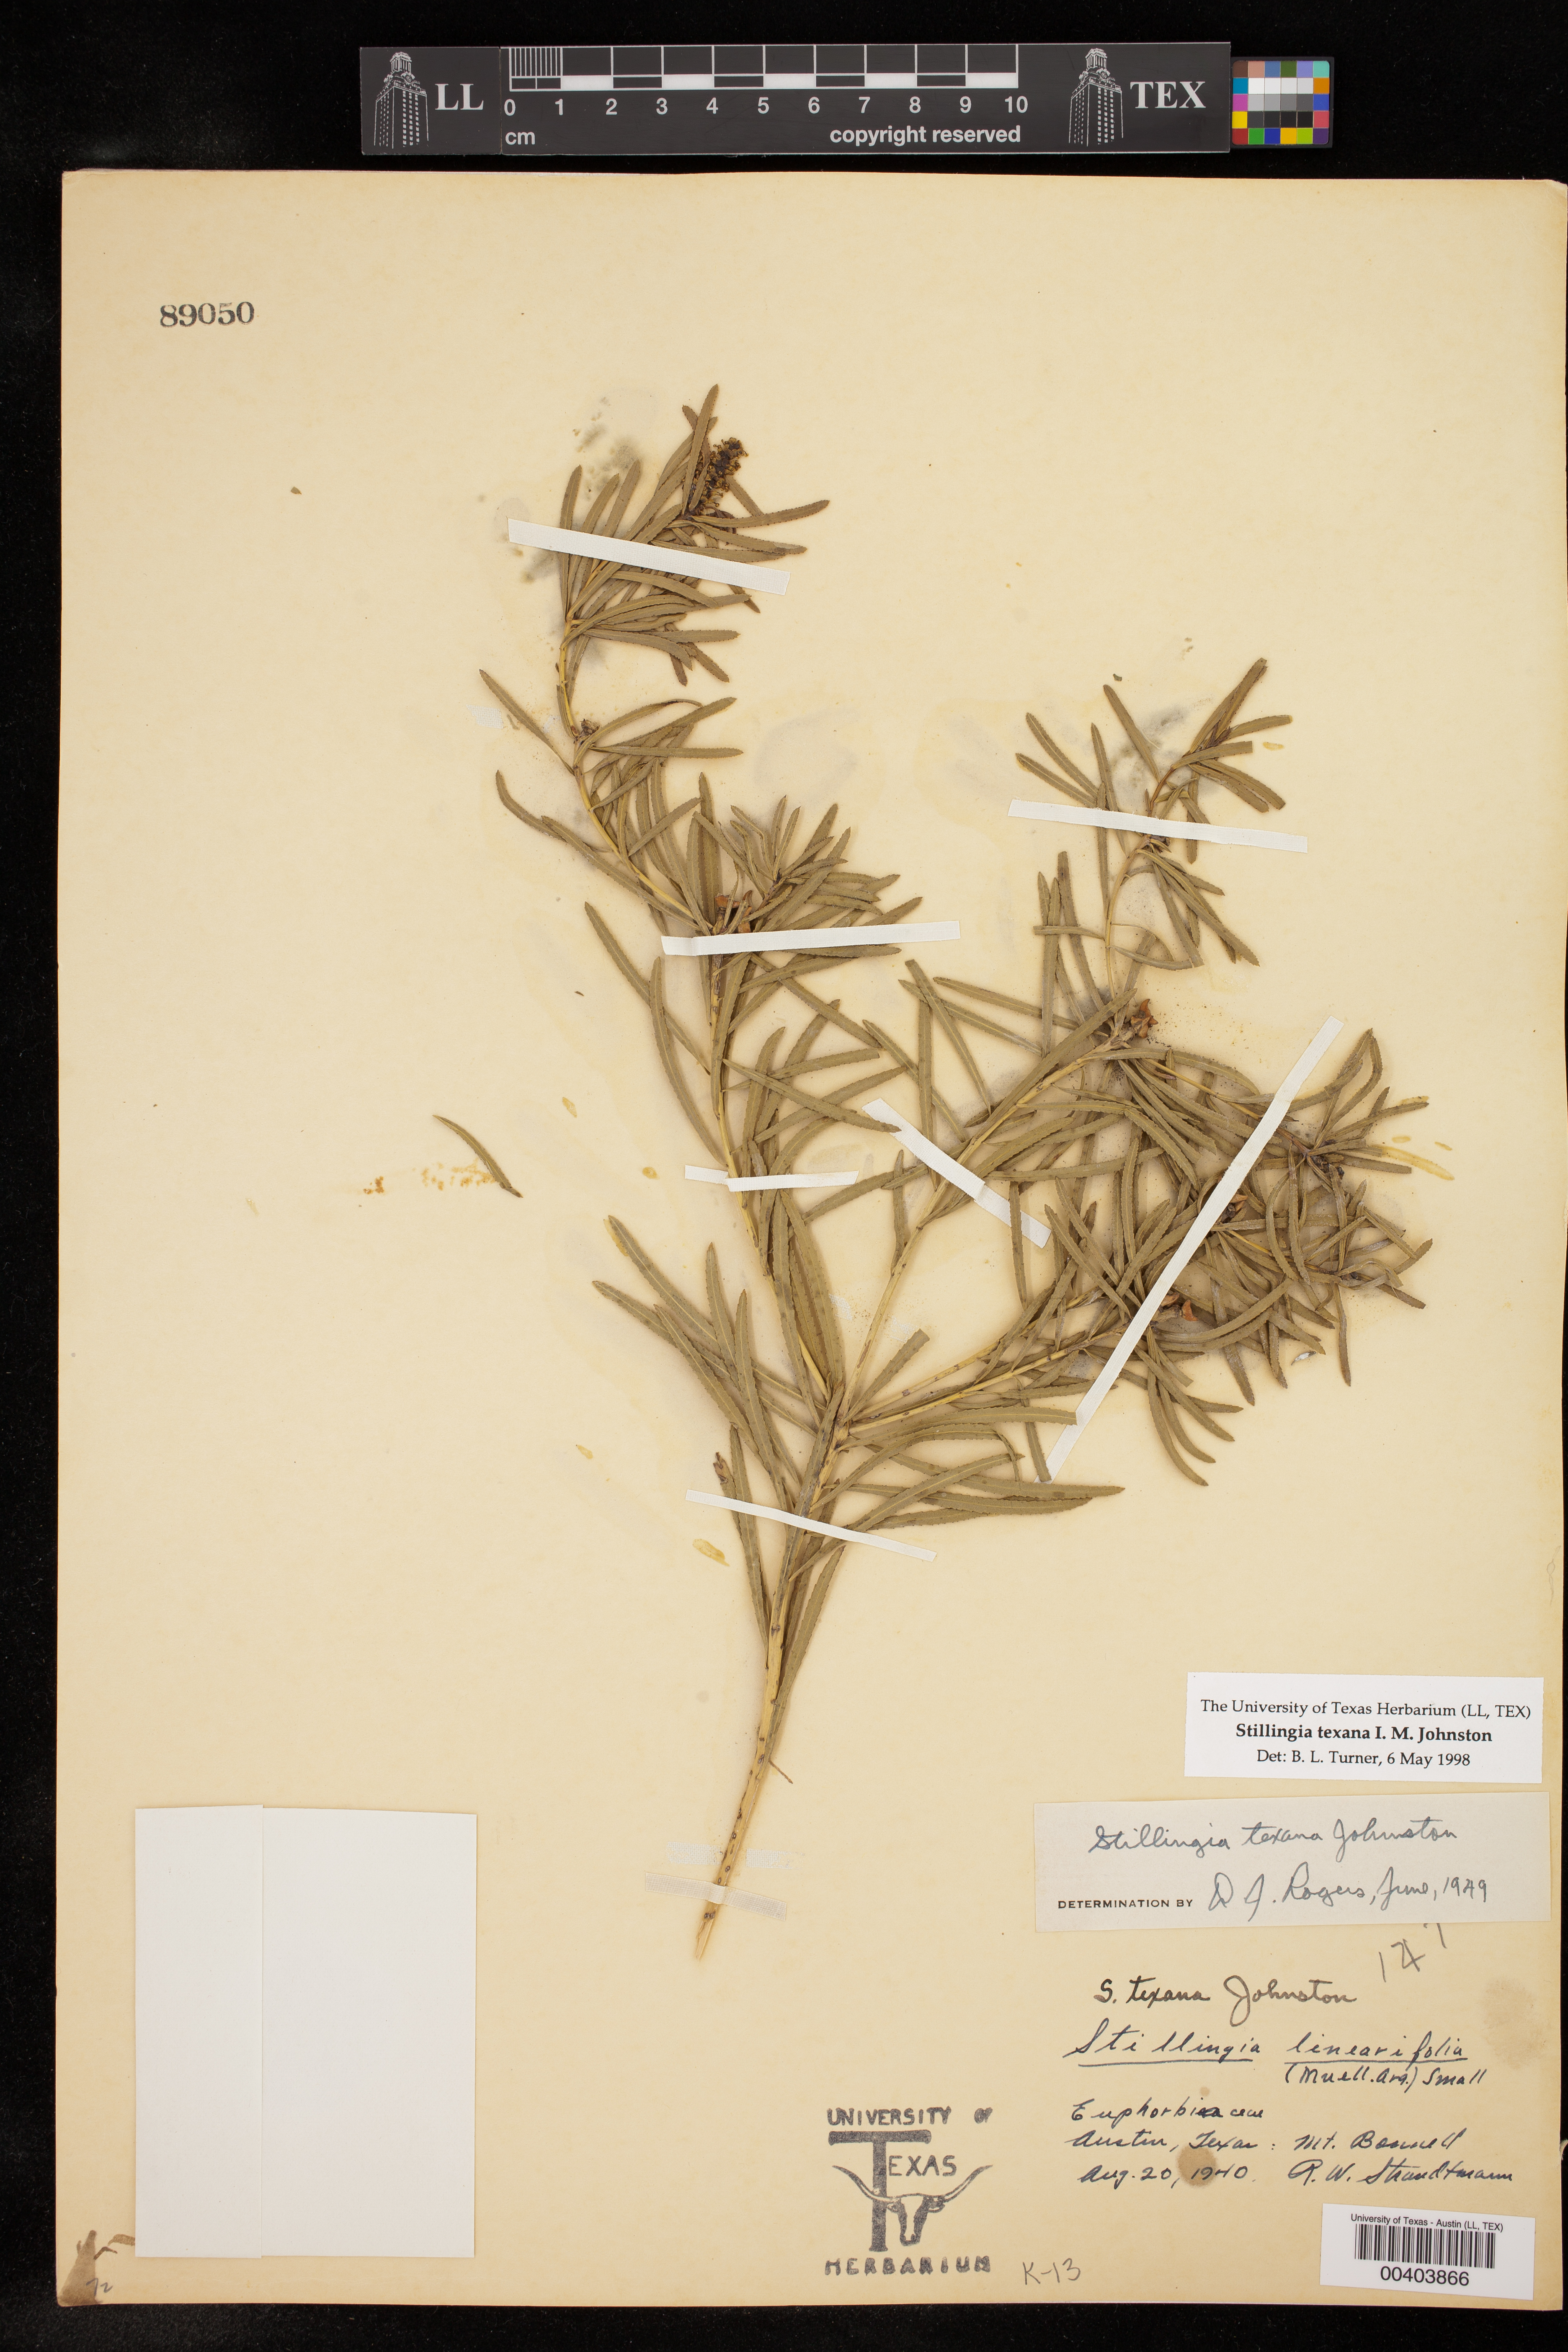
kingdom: Plantae
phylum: Tracheophyta
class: Magnoliopsida
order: Malpighiales
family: Euphorbiaceae
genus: Stillingia
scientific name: Stillingia texana
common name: Texas stillingia
